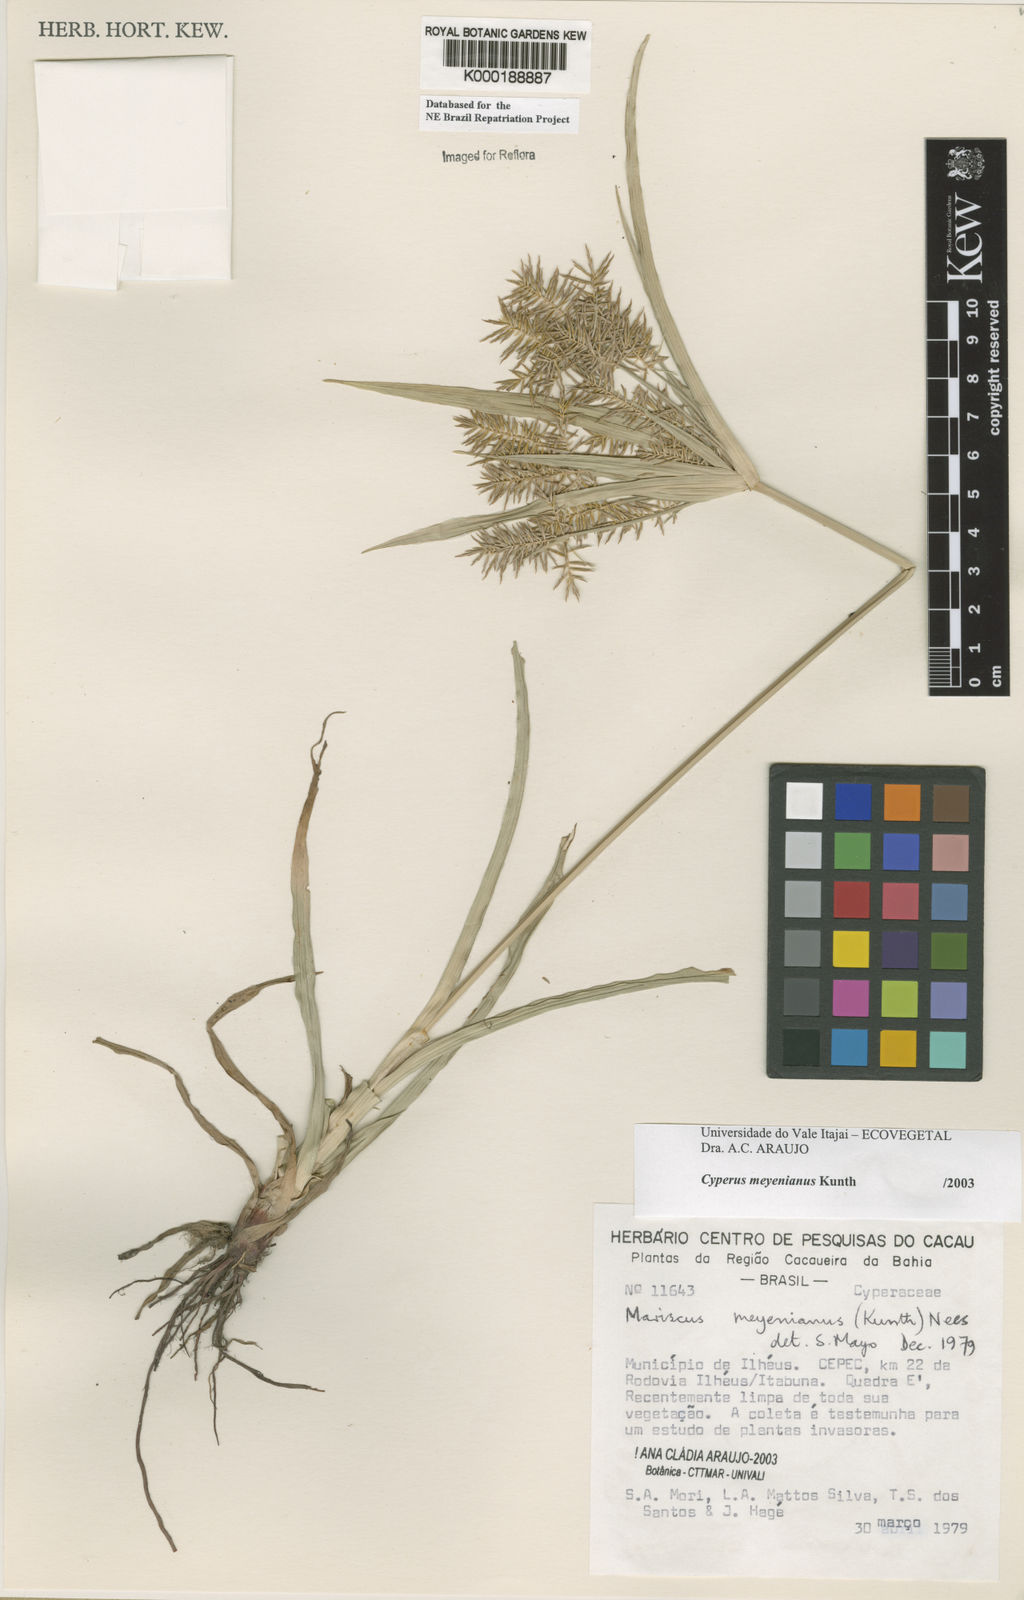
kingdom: Plantae
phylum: Tracheophyta
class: Liliopsida
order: Poales
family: Cyperaceae
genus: Cyperus
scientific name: Cyperus coriifolius
